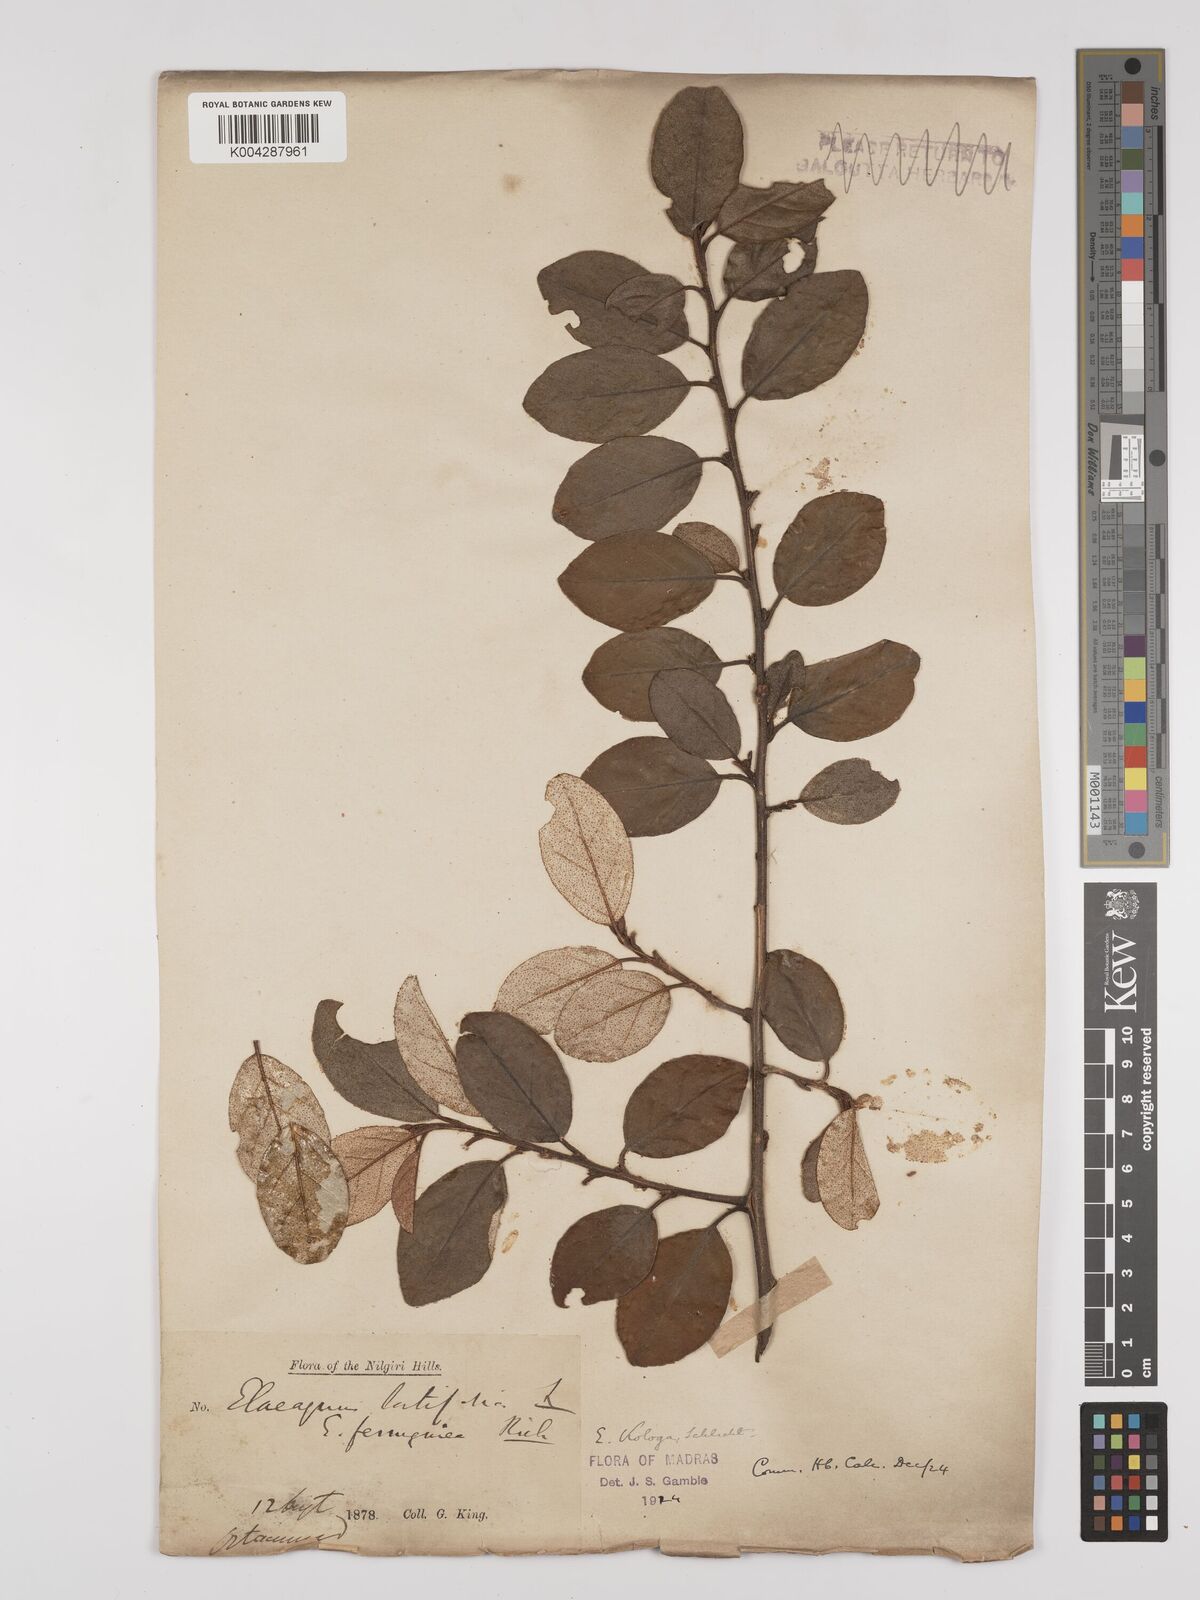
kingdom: Plantae
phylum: Tracheophyta
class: Magnoliopsida
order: Rosales
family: Elaeagnaceae
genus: Elaeagnus
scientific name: Elaeagnus latifolia
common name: Oleaster
